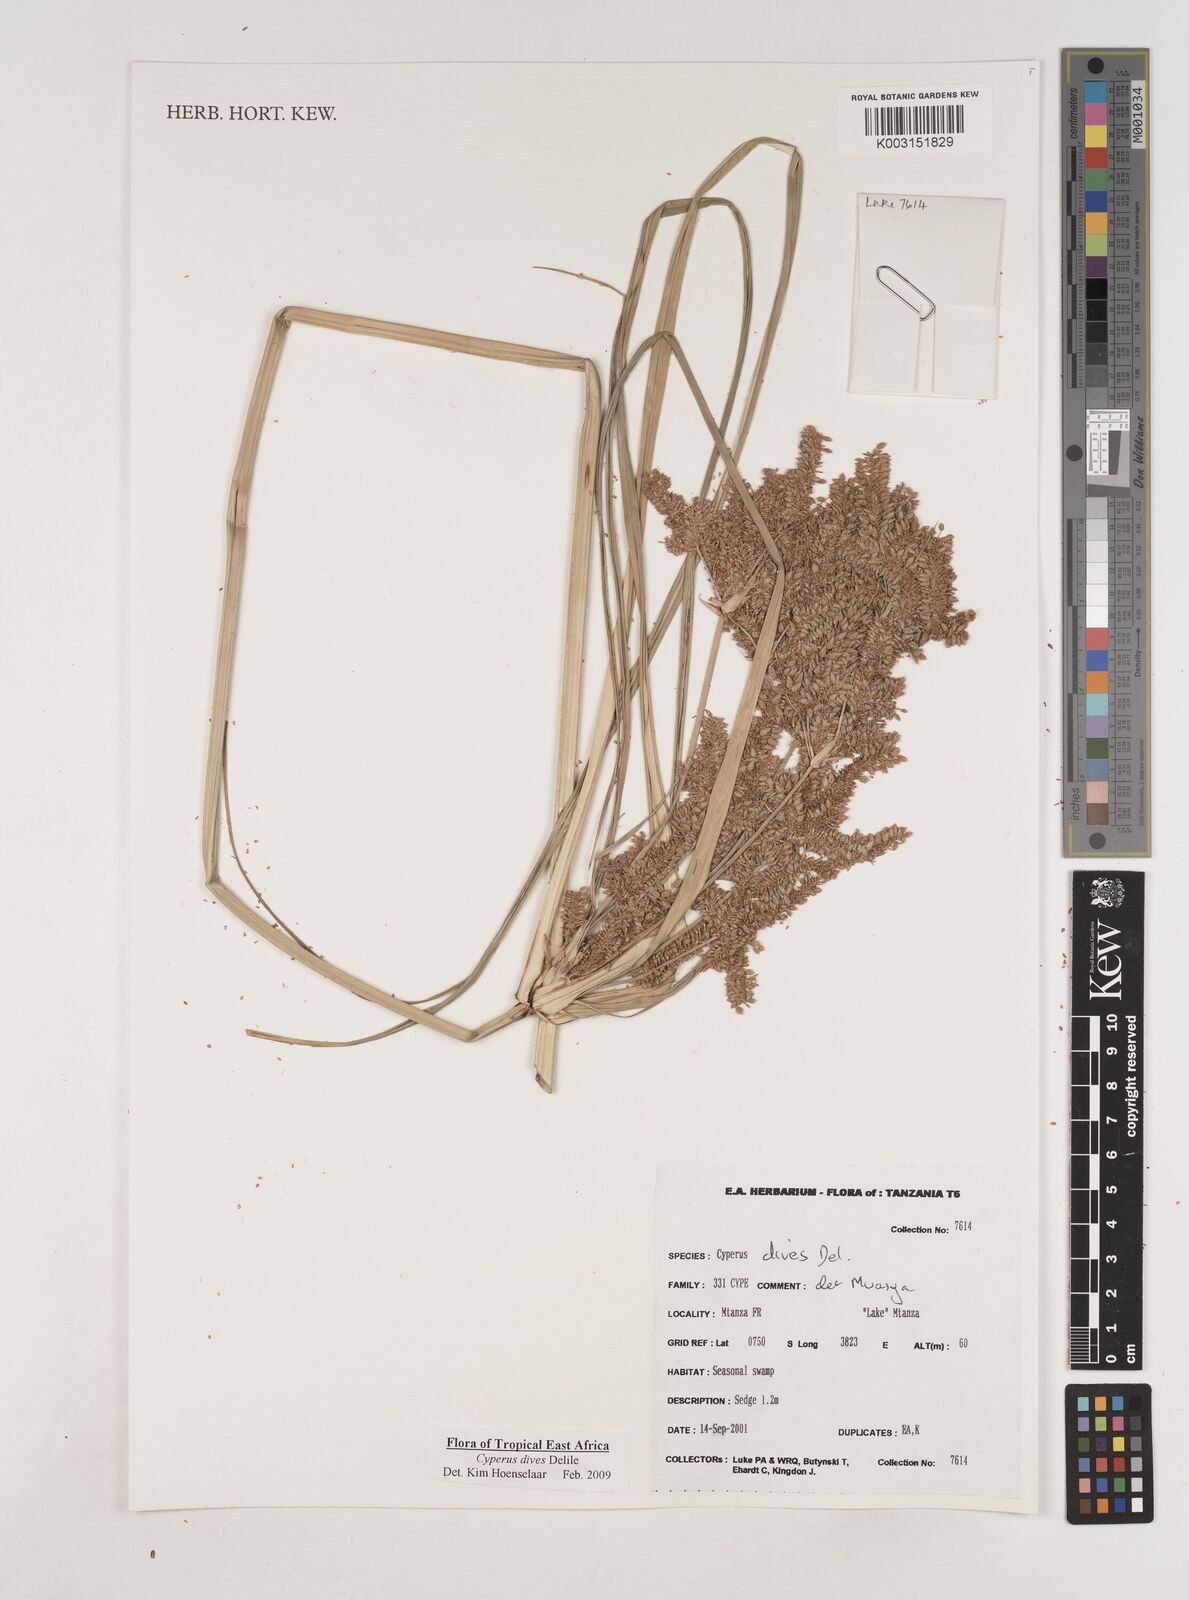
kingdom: Plantae
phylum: Tracheophyta
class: Liliopsida
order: Poales
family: Cyperaceae
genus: Cyperus
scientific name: Cyperus dives
